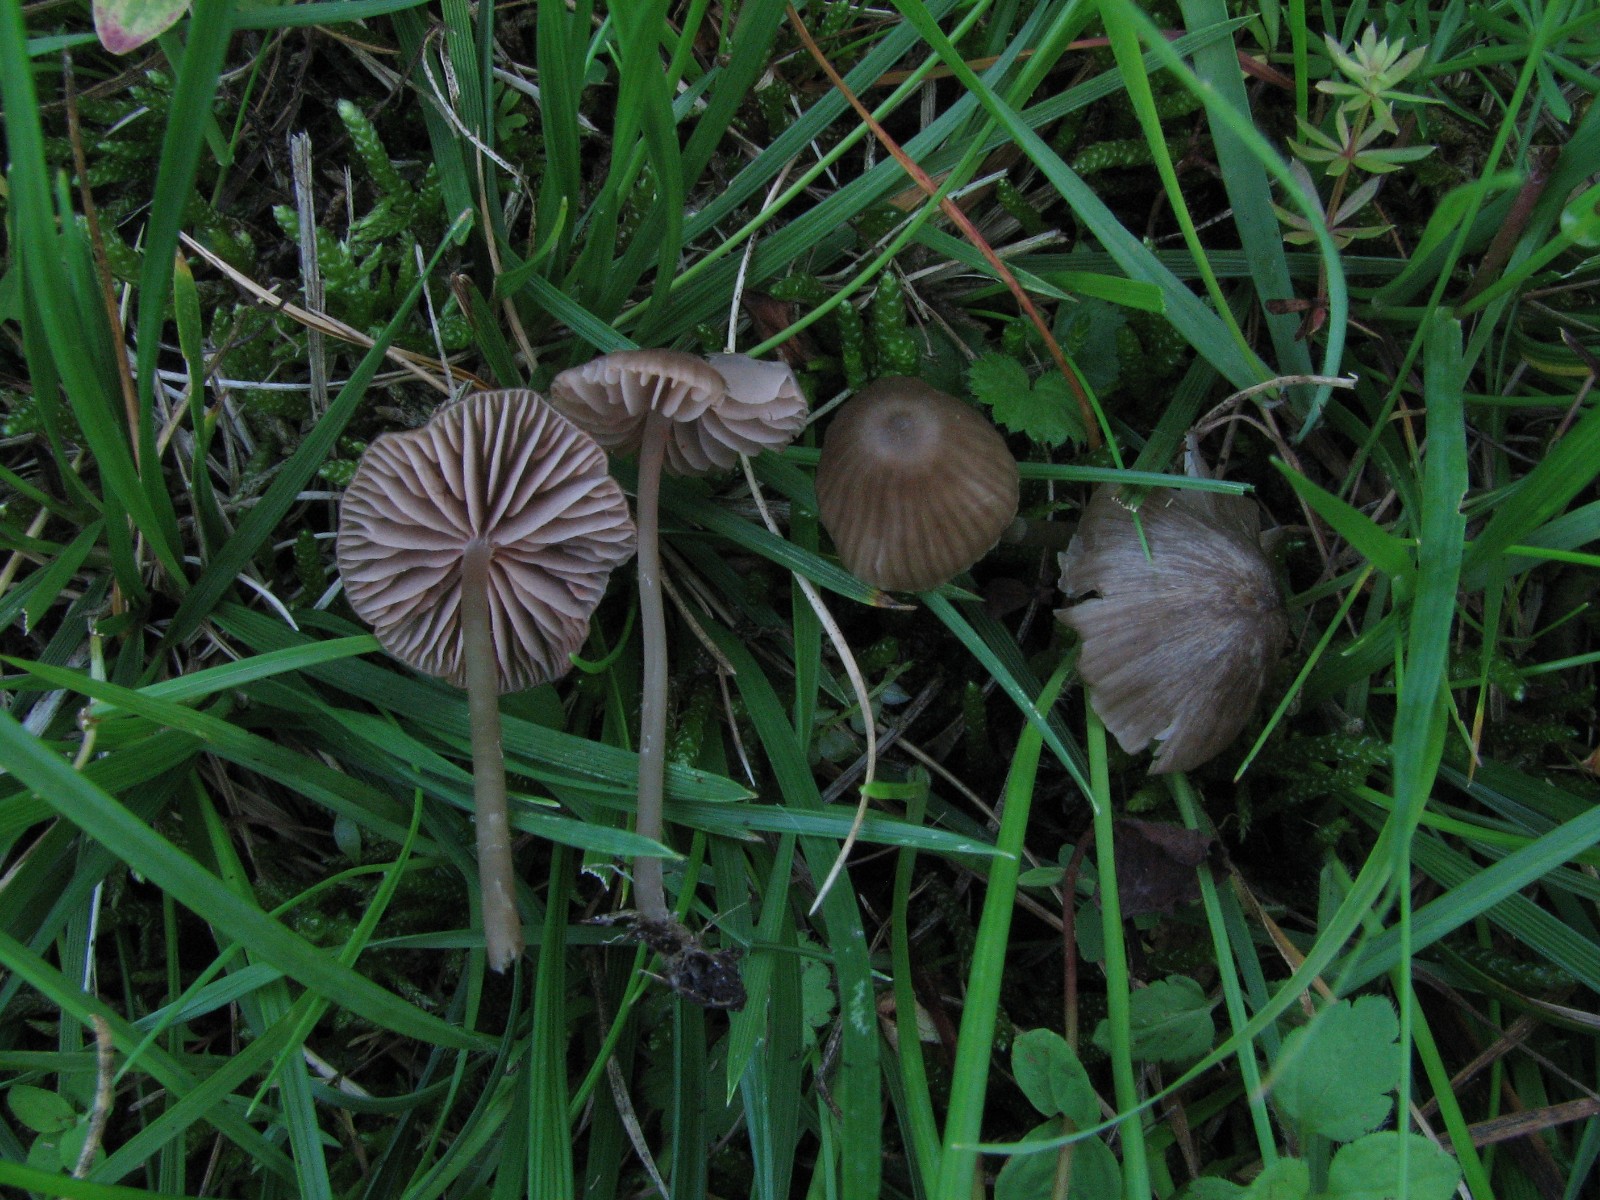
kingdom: Fungi
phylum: Basidiomycota
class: Agaricomycetes
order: Agaricales
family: Entolomataceae
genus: Entoloma
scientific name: Entoloma velenovskyi
